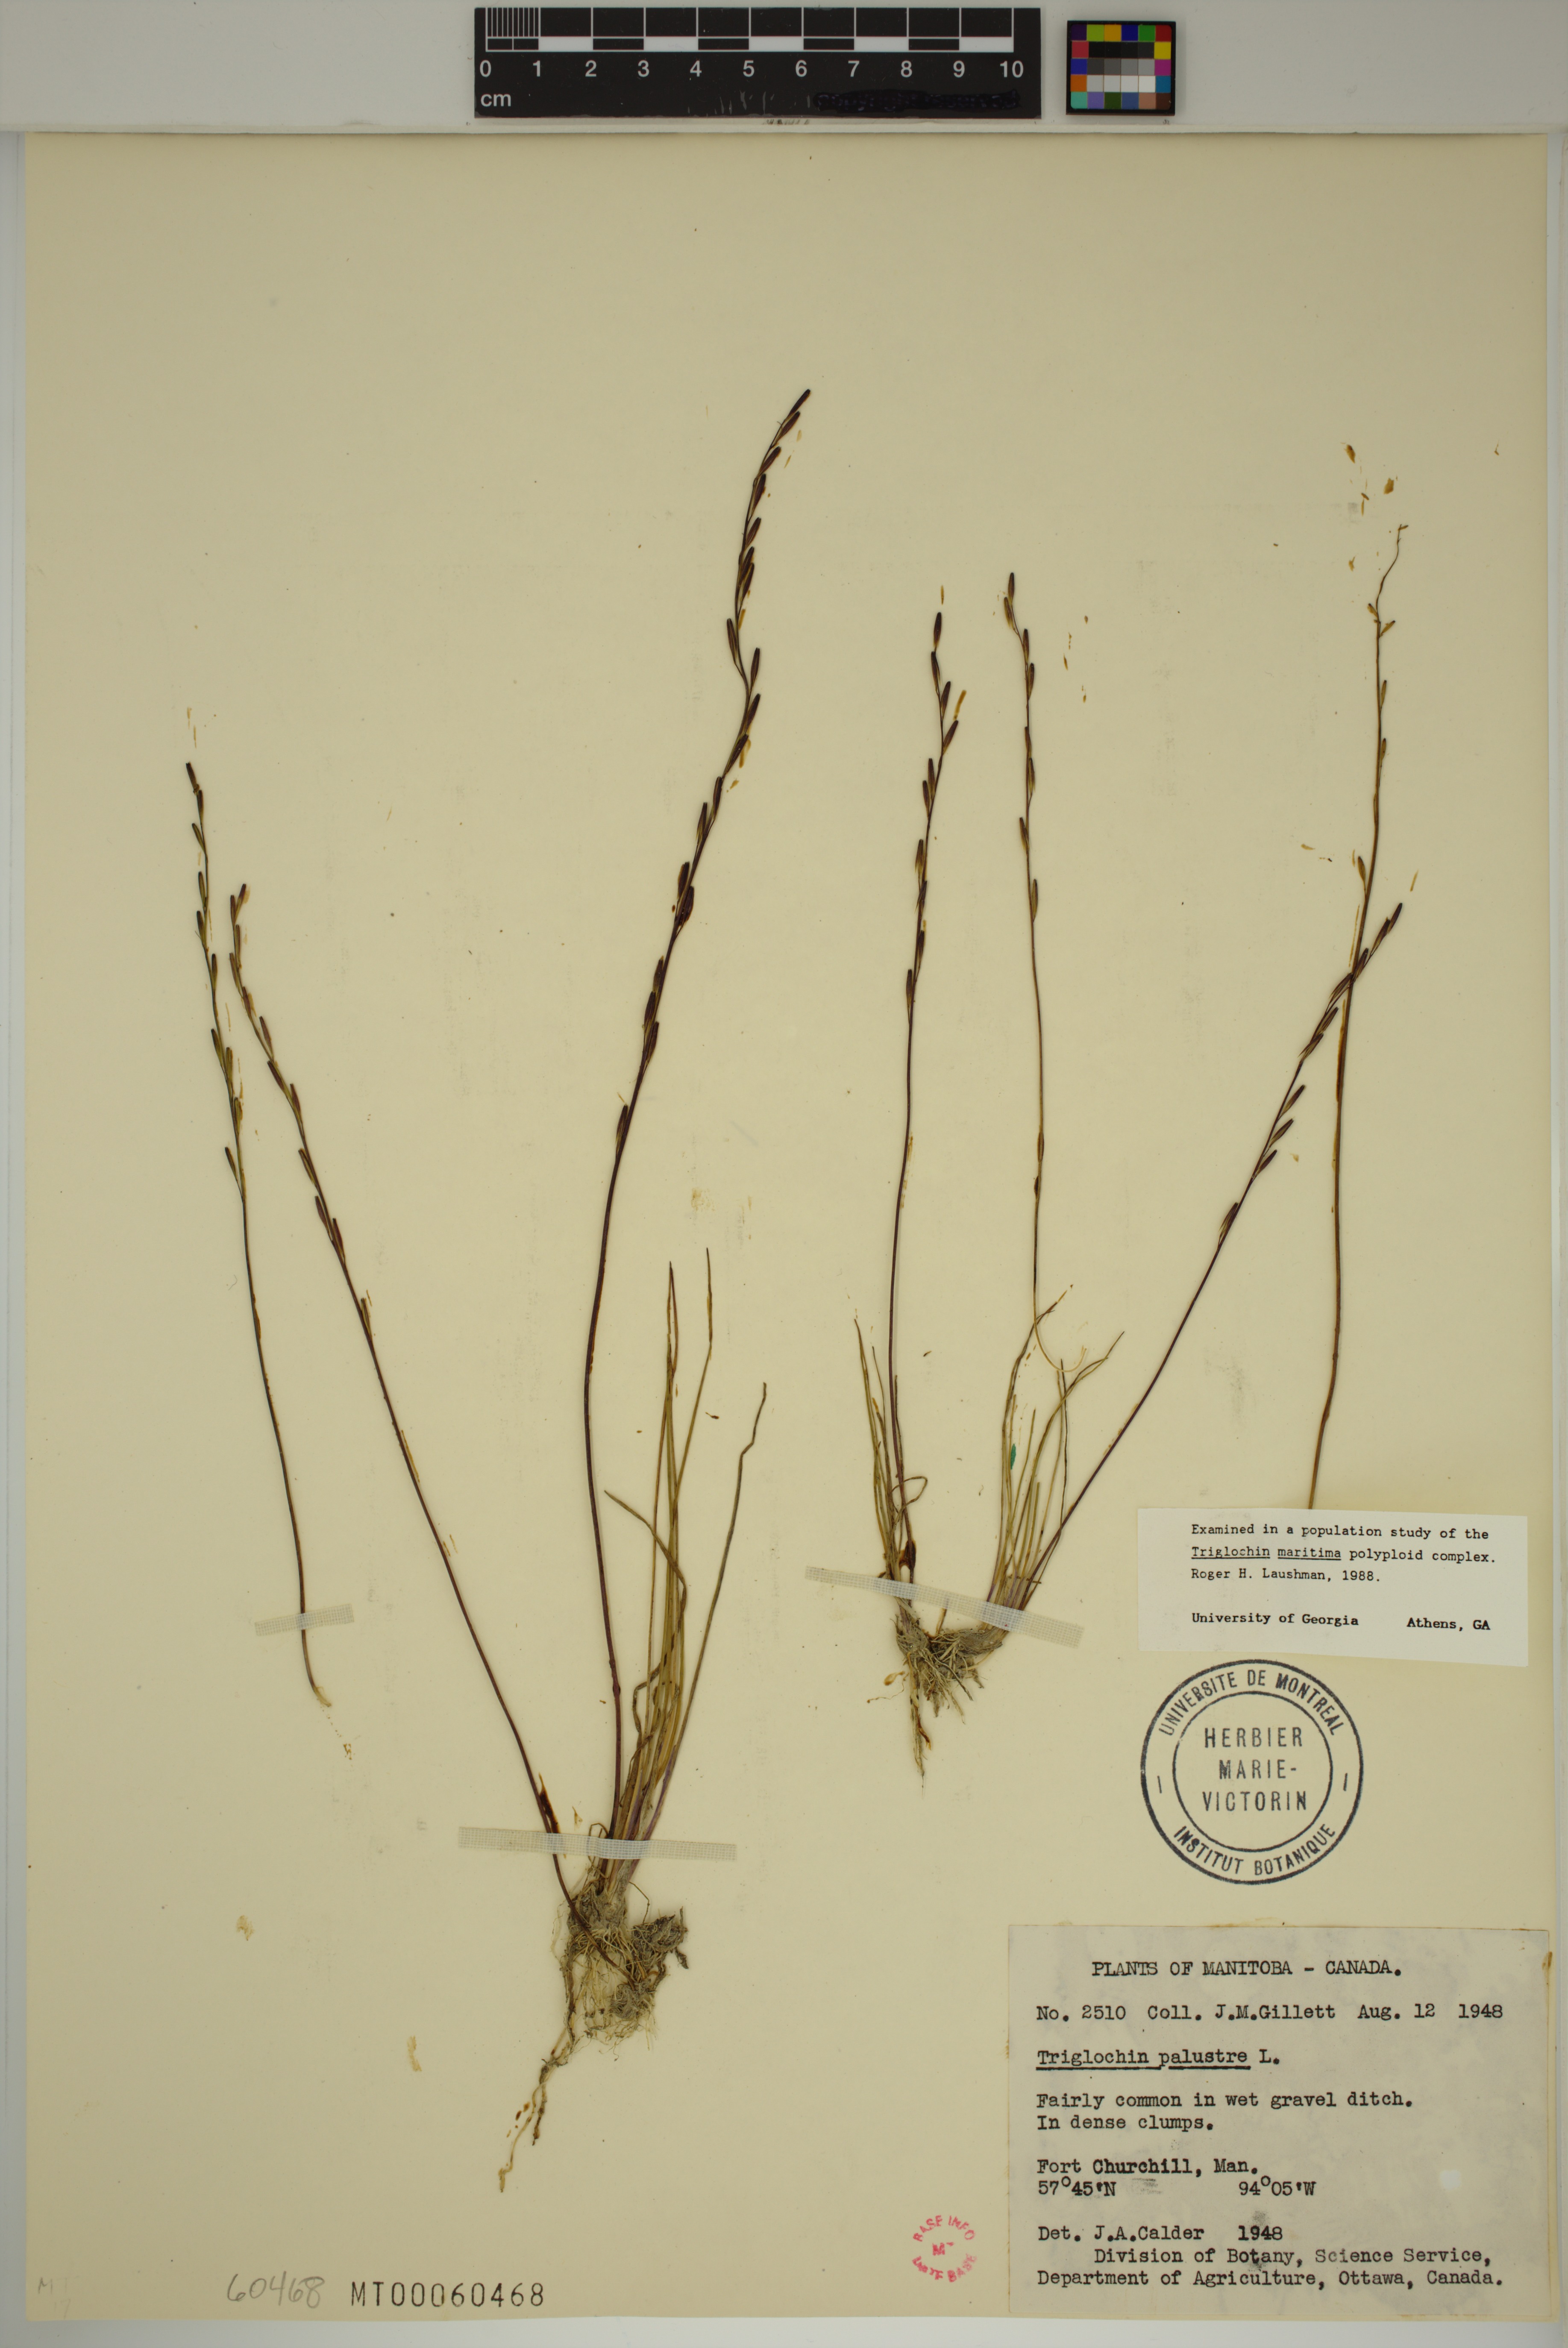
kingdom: Plantae
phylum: Tracheophyta
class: Liliopsida
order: Alismatales
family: Juncaginaceae
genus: Triglochin
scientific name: Triglochin palustris
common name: Marsh arrowgrass
